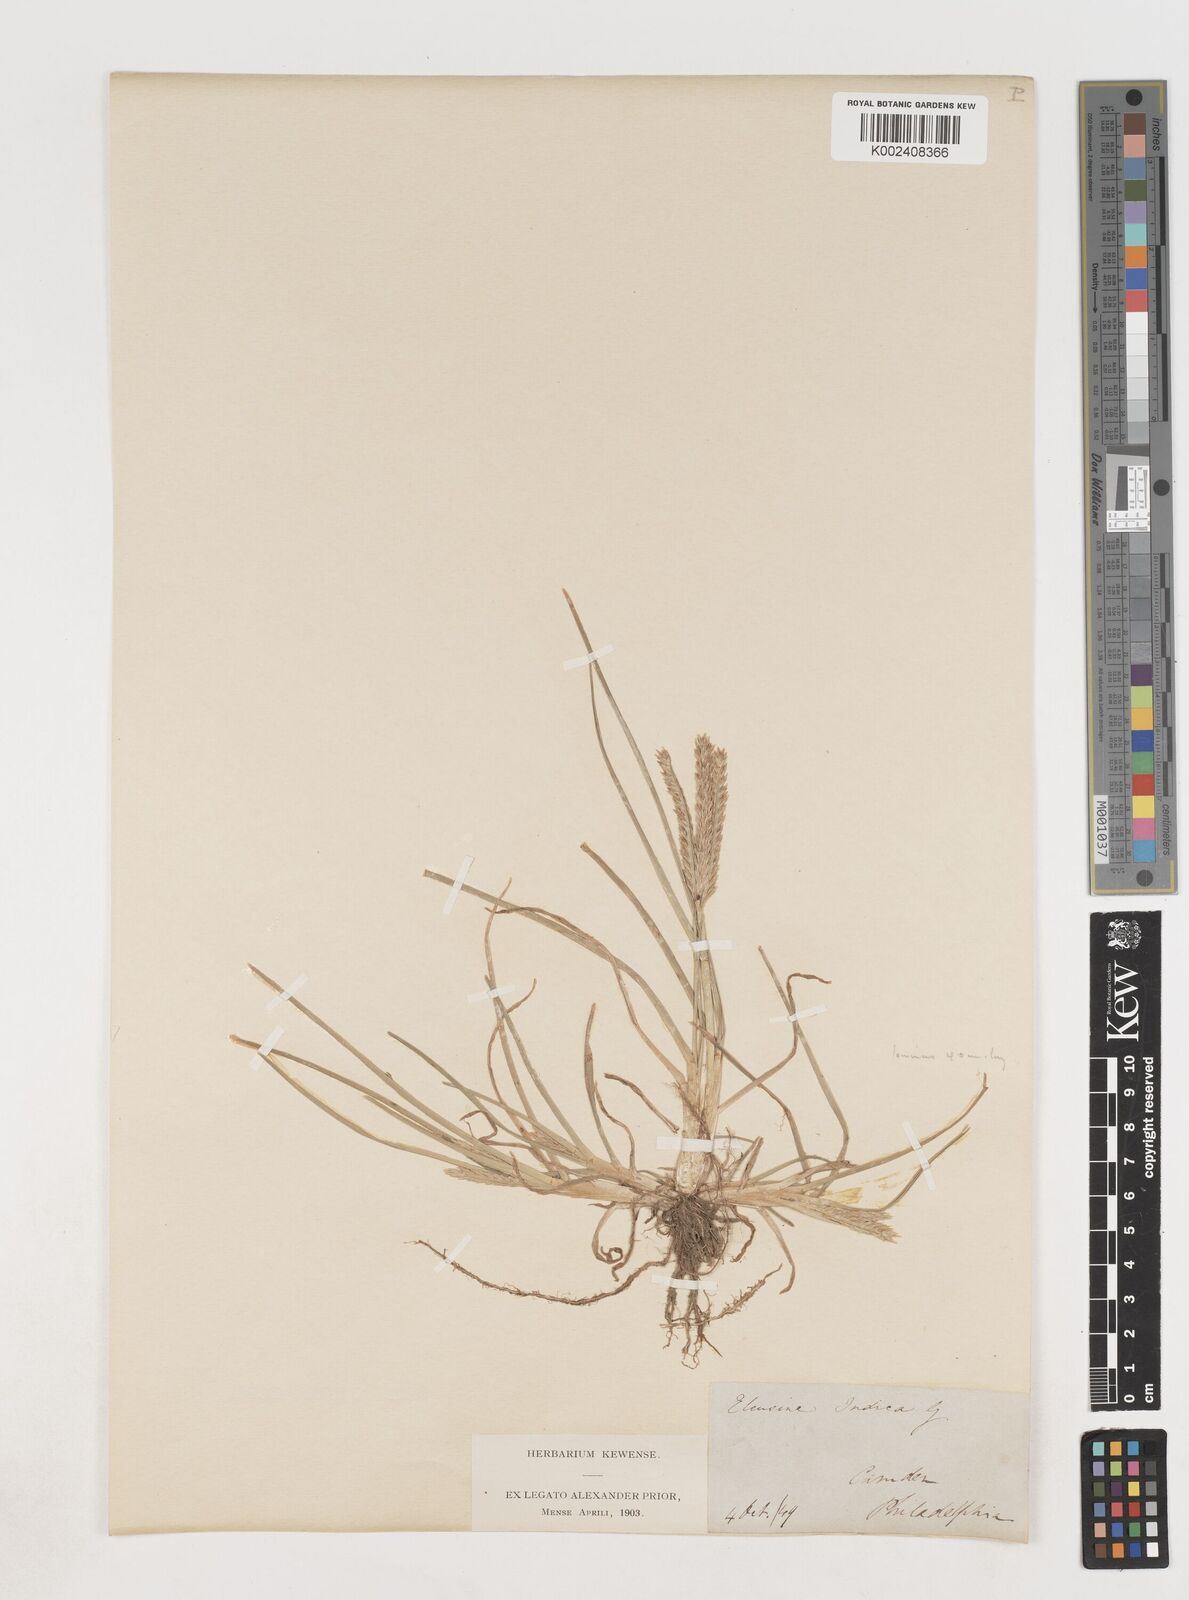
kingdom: Plantae
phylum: Tracheophyta
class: Liliopsida
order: Poales
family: Poaceae
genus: Eleusine
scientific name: Eleusine indica
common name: Yard-grass
